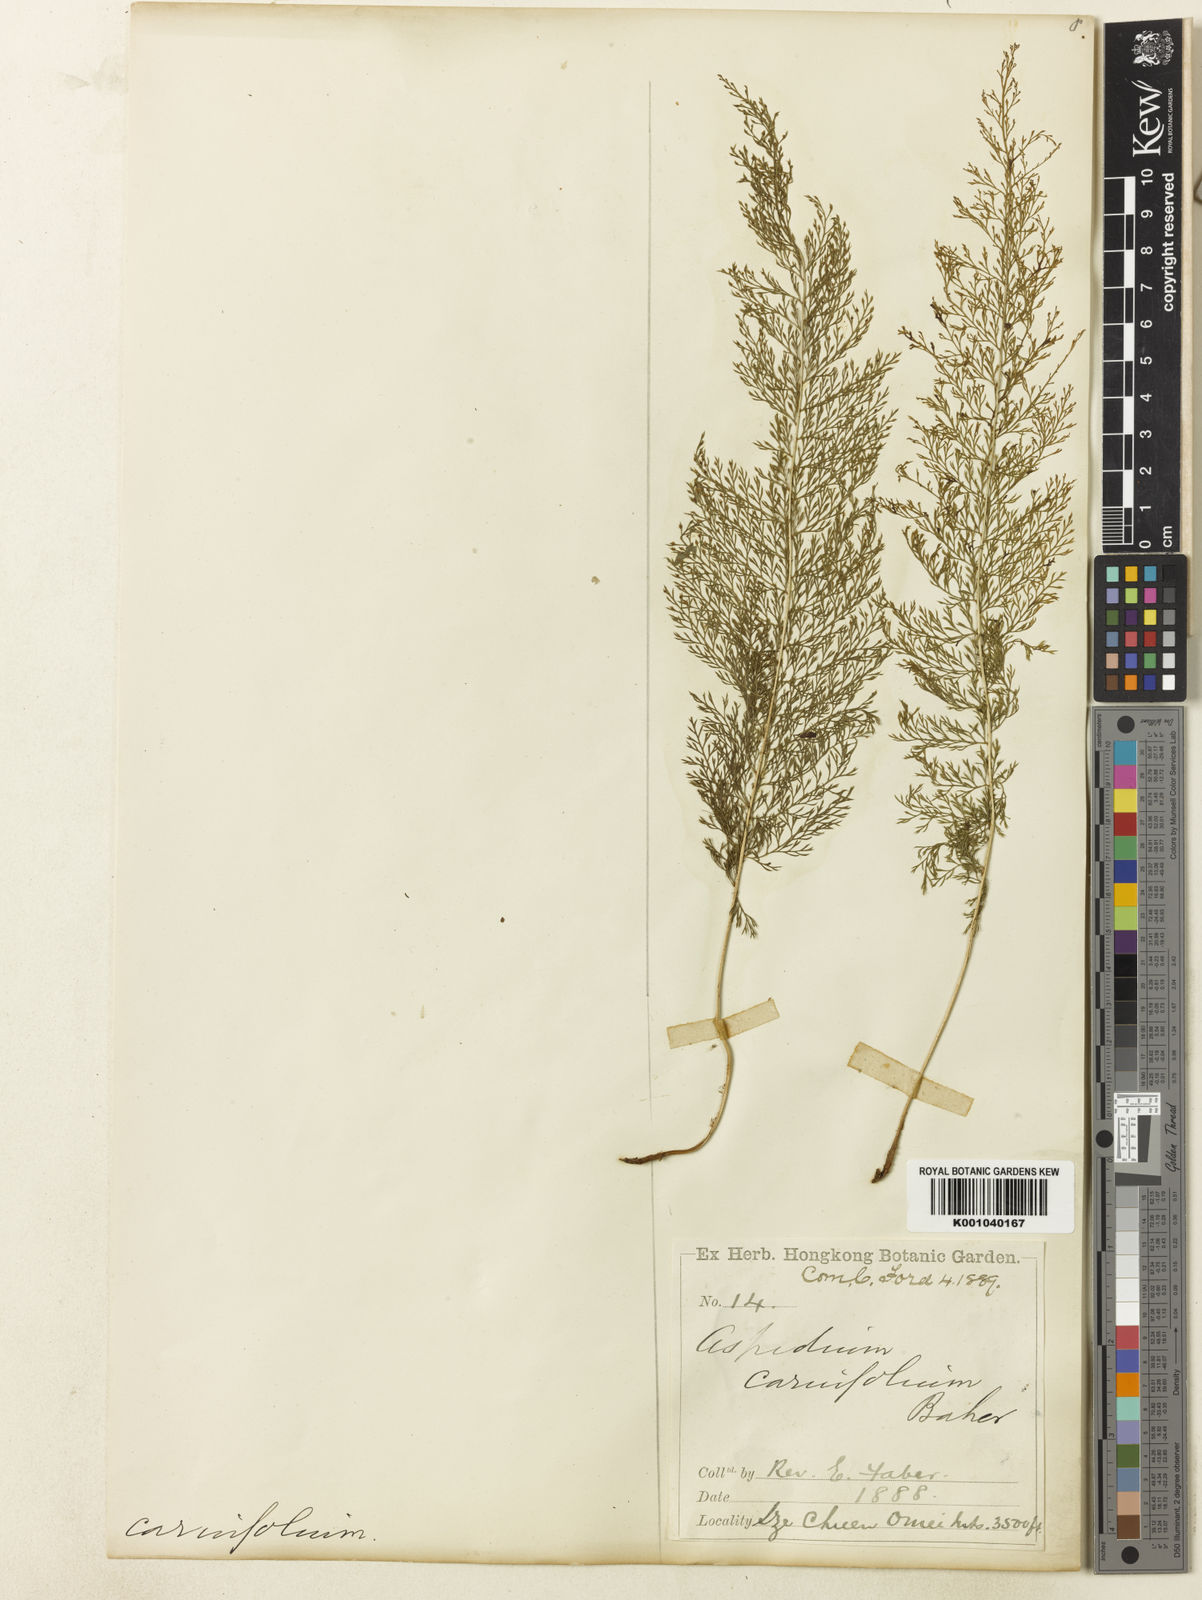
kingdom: Animalia
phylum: Arthropoda
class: Insecta
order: Hemiptera
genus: Acropelta
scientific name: Acropelta
